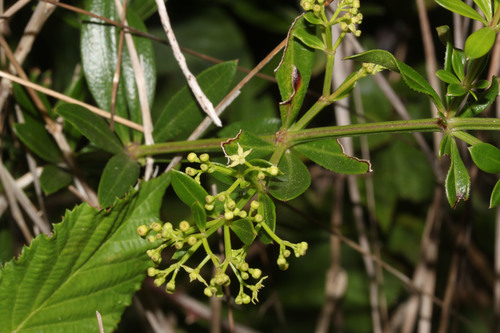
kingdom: Plantae
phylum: Tracheophyta
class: Magnoliopsida
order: Gentianales
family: Rubiaceae
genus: Rubia
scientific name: Rubia peregrina
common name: Wild madder
